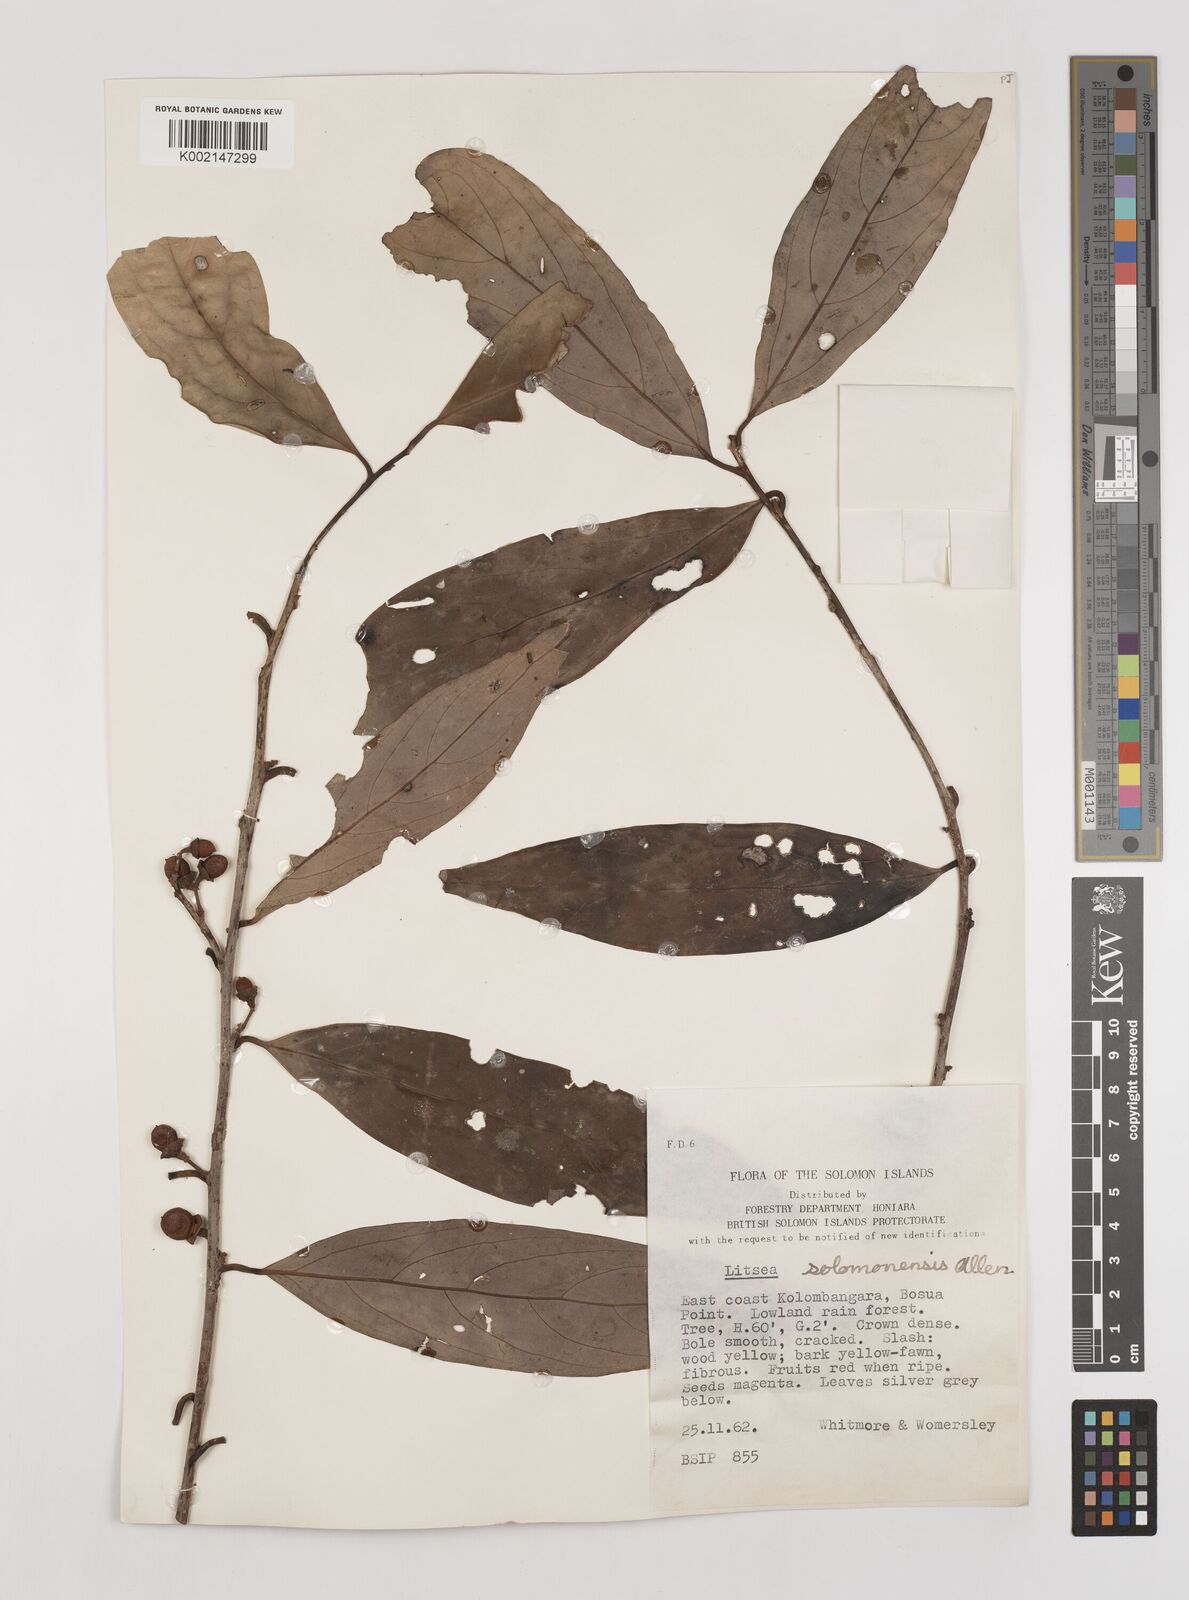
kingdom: Plantae
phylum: Tracheophyta
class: Magnoliopsida
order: Laurales
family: Lauraceae
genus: Litsea
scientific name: Litsea timoriana
